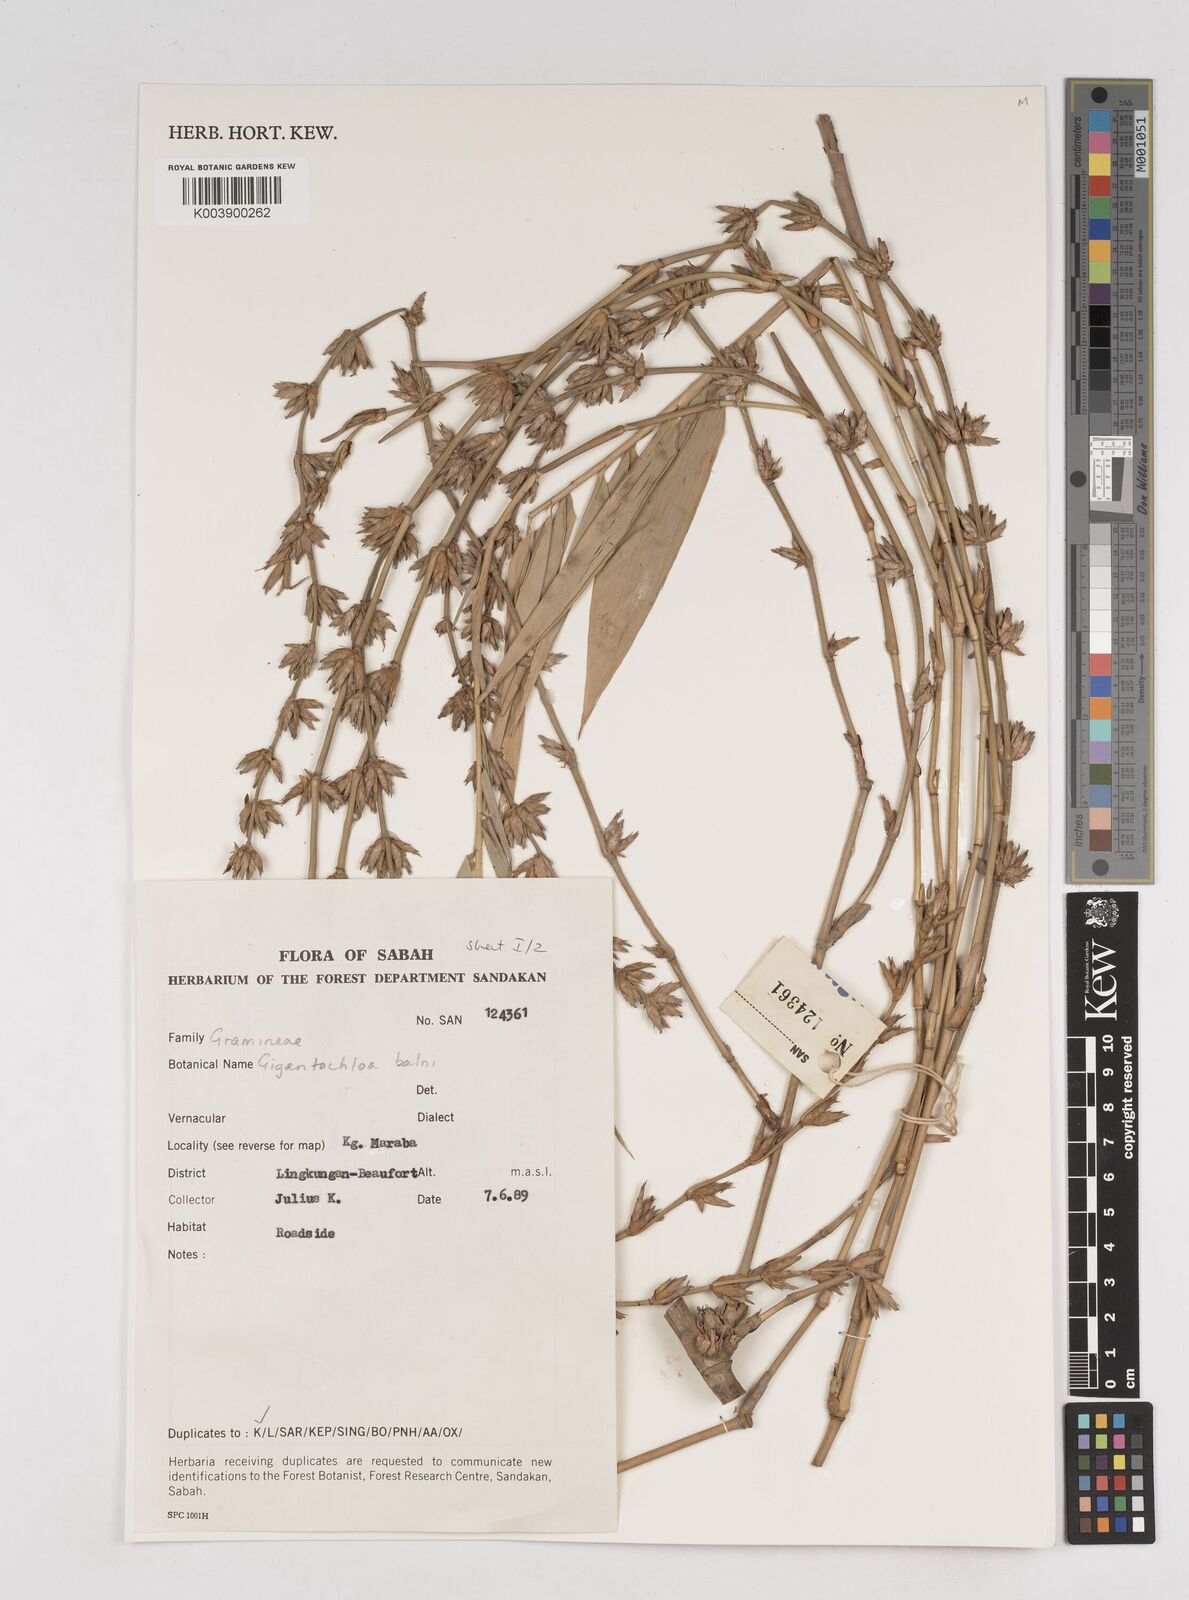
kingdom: Plantae
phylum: Tracheophyta
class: Liliopsida
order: Poales
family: Poaceae
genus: Gigantochloa
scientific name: Gigantochloa balui
